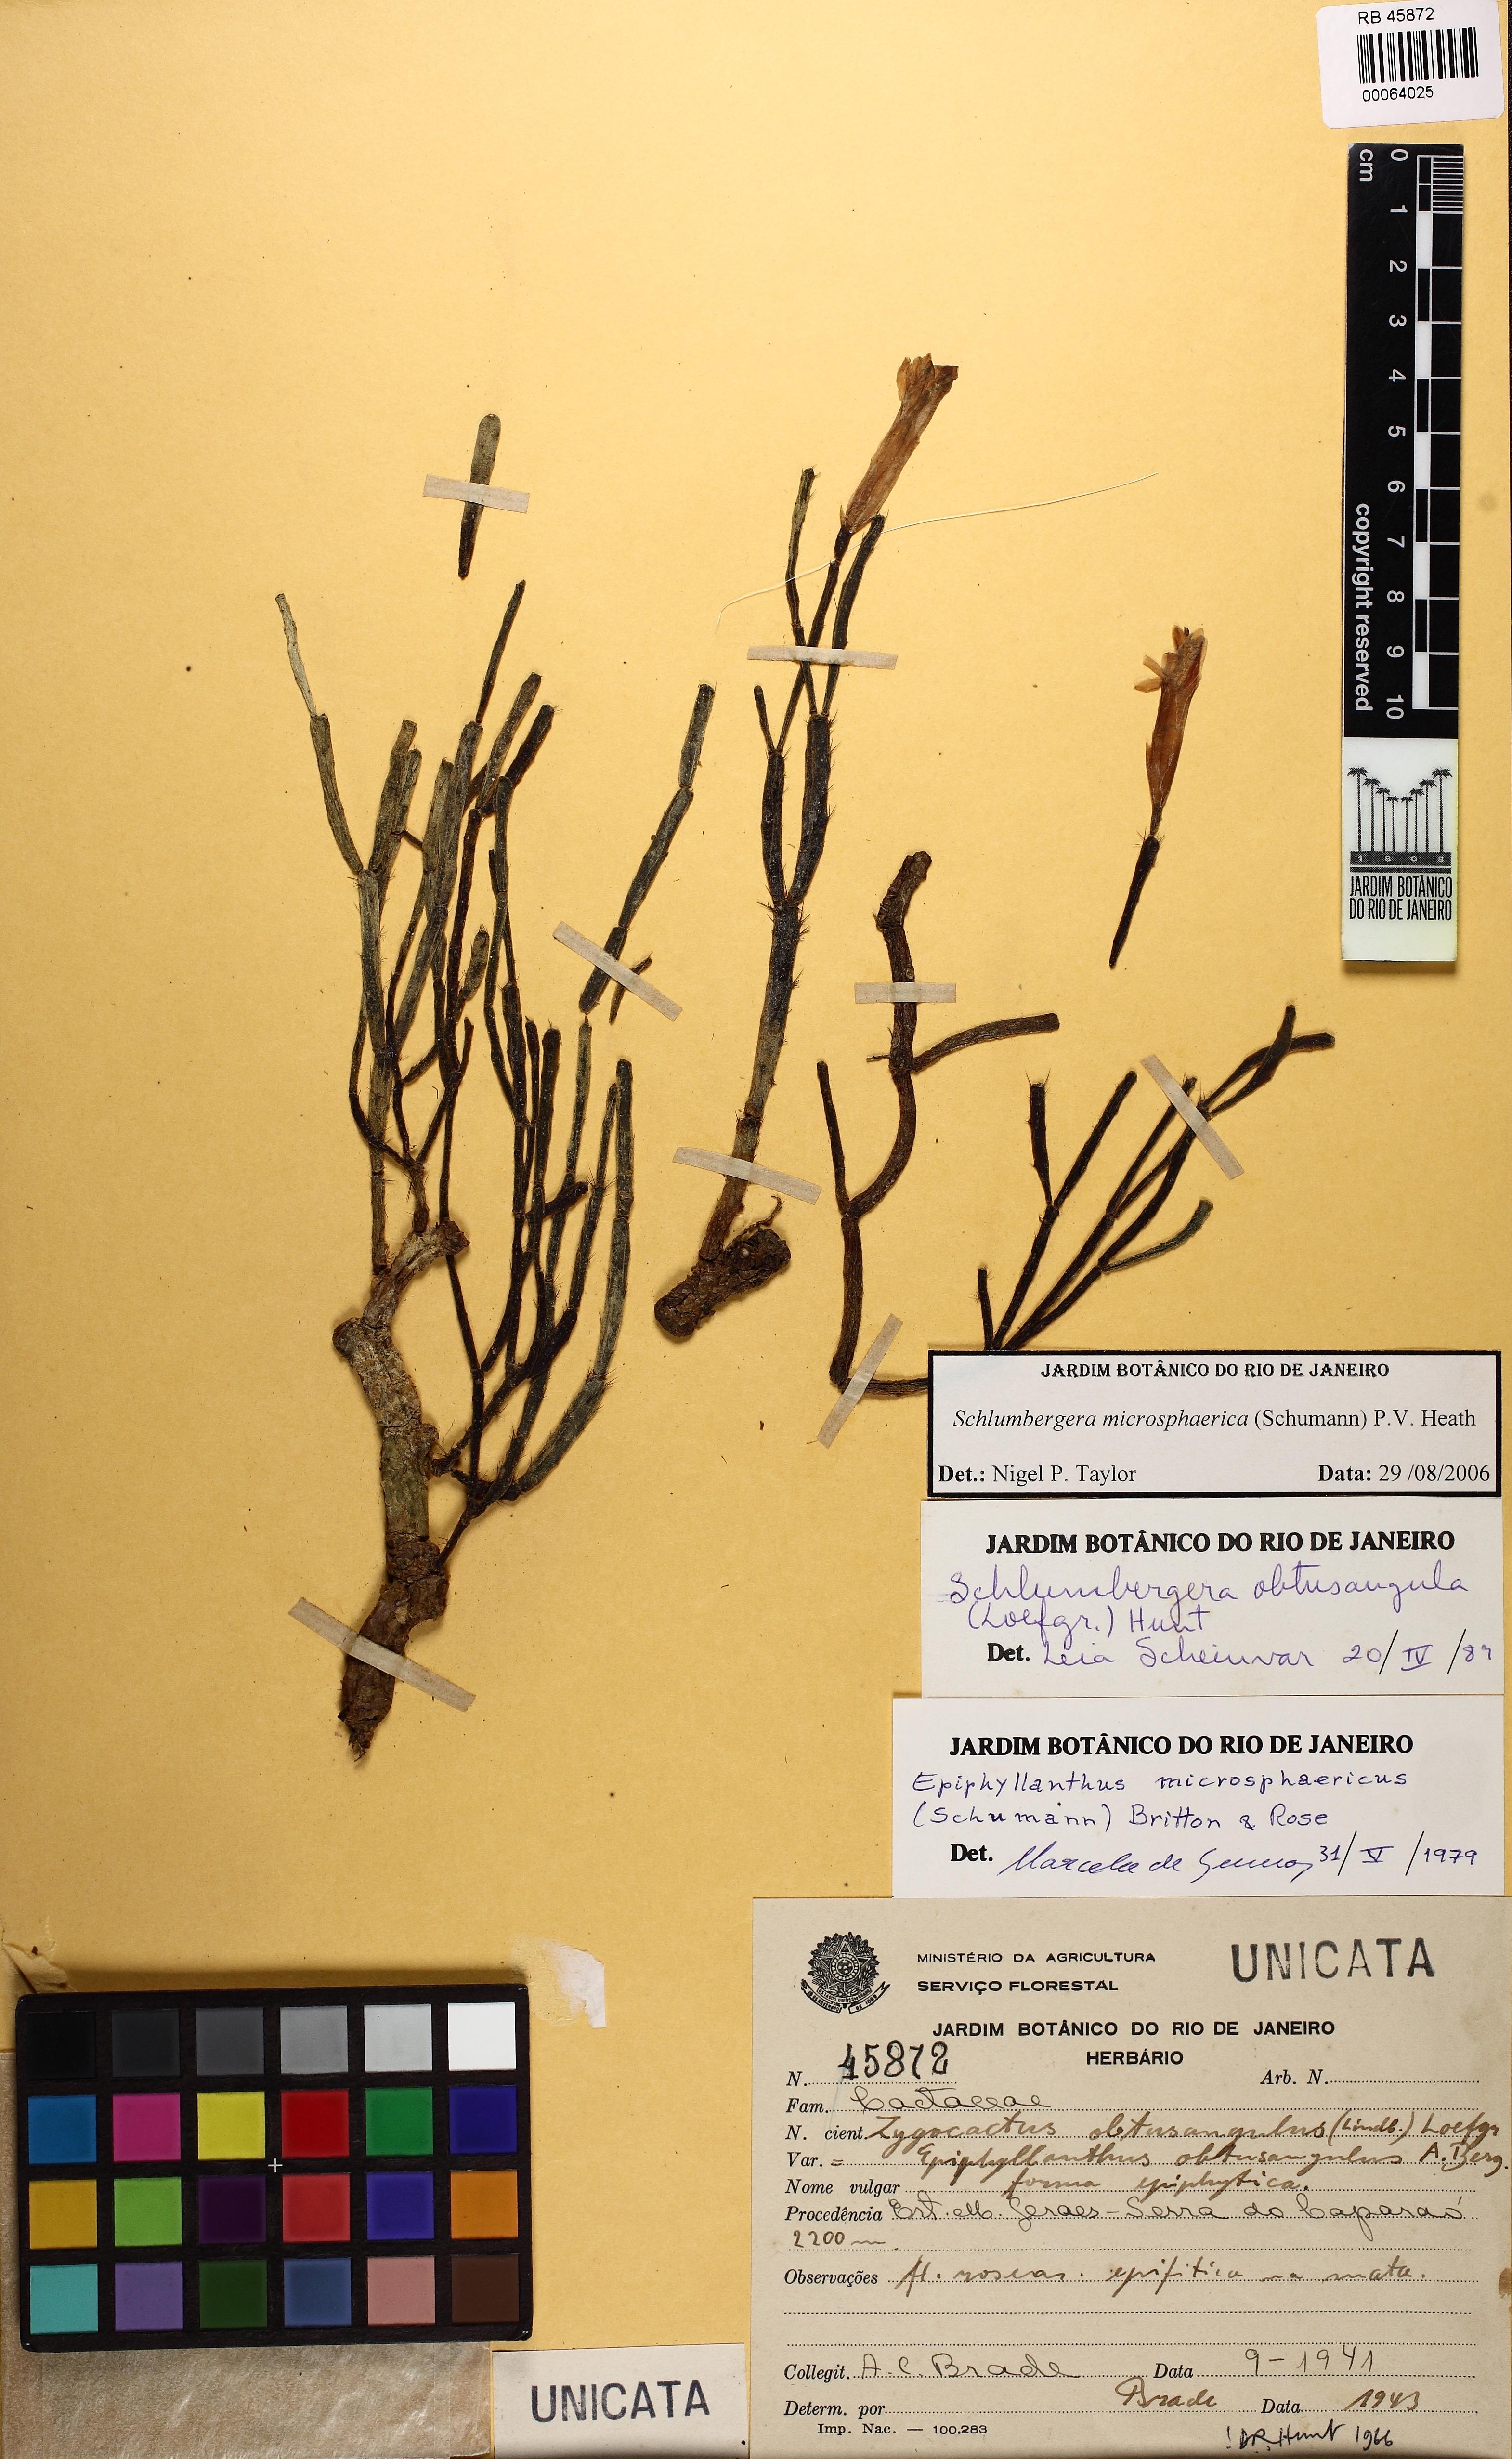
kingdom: Plantae
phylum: Tracheophyta
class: Magnoliopsida
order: Caryophyllales
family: Cactaceae
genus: Schlumbergera
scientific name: Schlumbergera microsphaerica
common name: Christmas cactus
